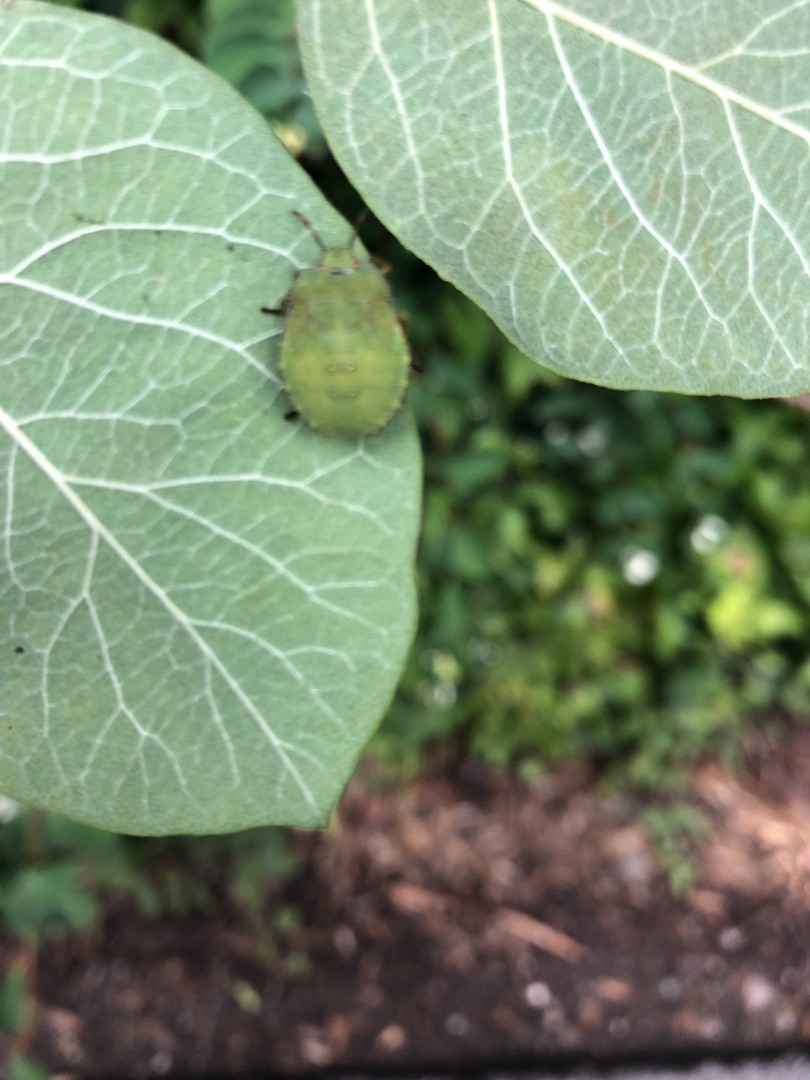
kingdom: Animalia
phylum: Arthropoda
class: Insecta
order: Hemiptera
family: Pentatomidae
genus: Palomena
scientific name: Palomena prasina
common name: Grøn bredtæge
